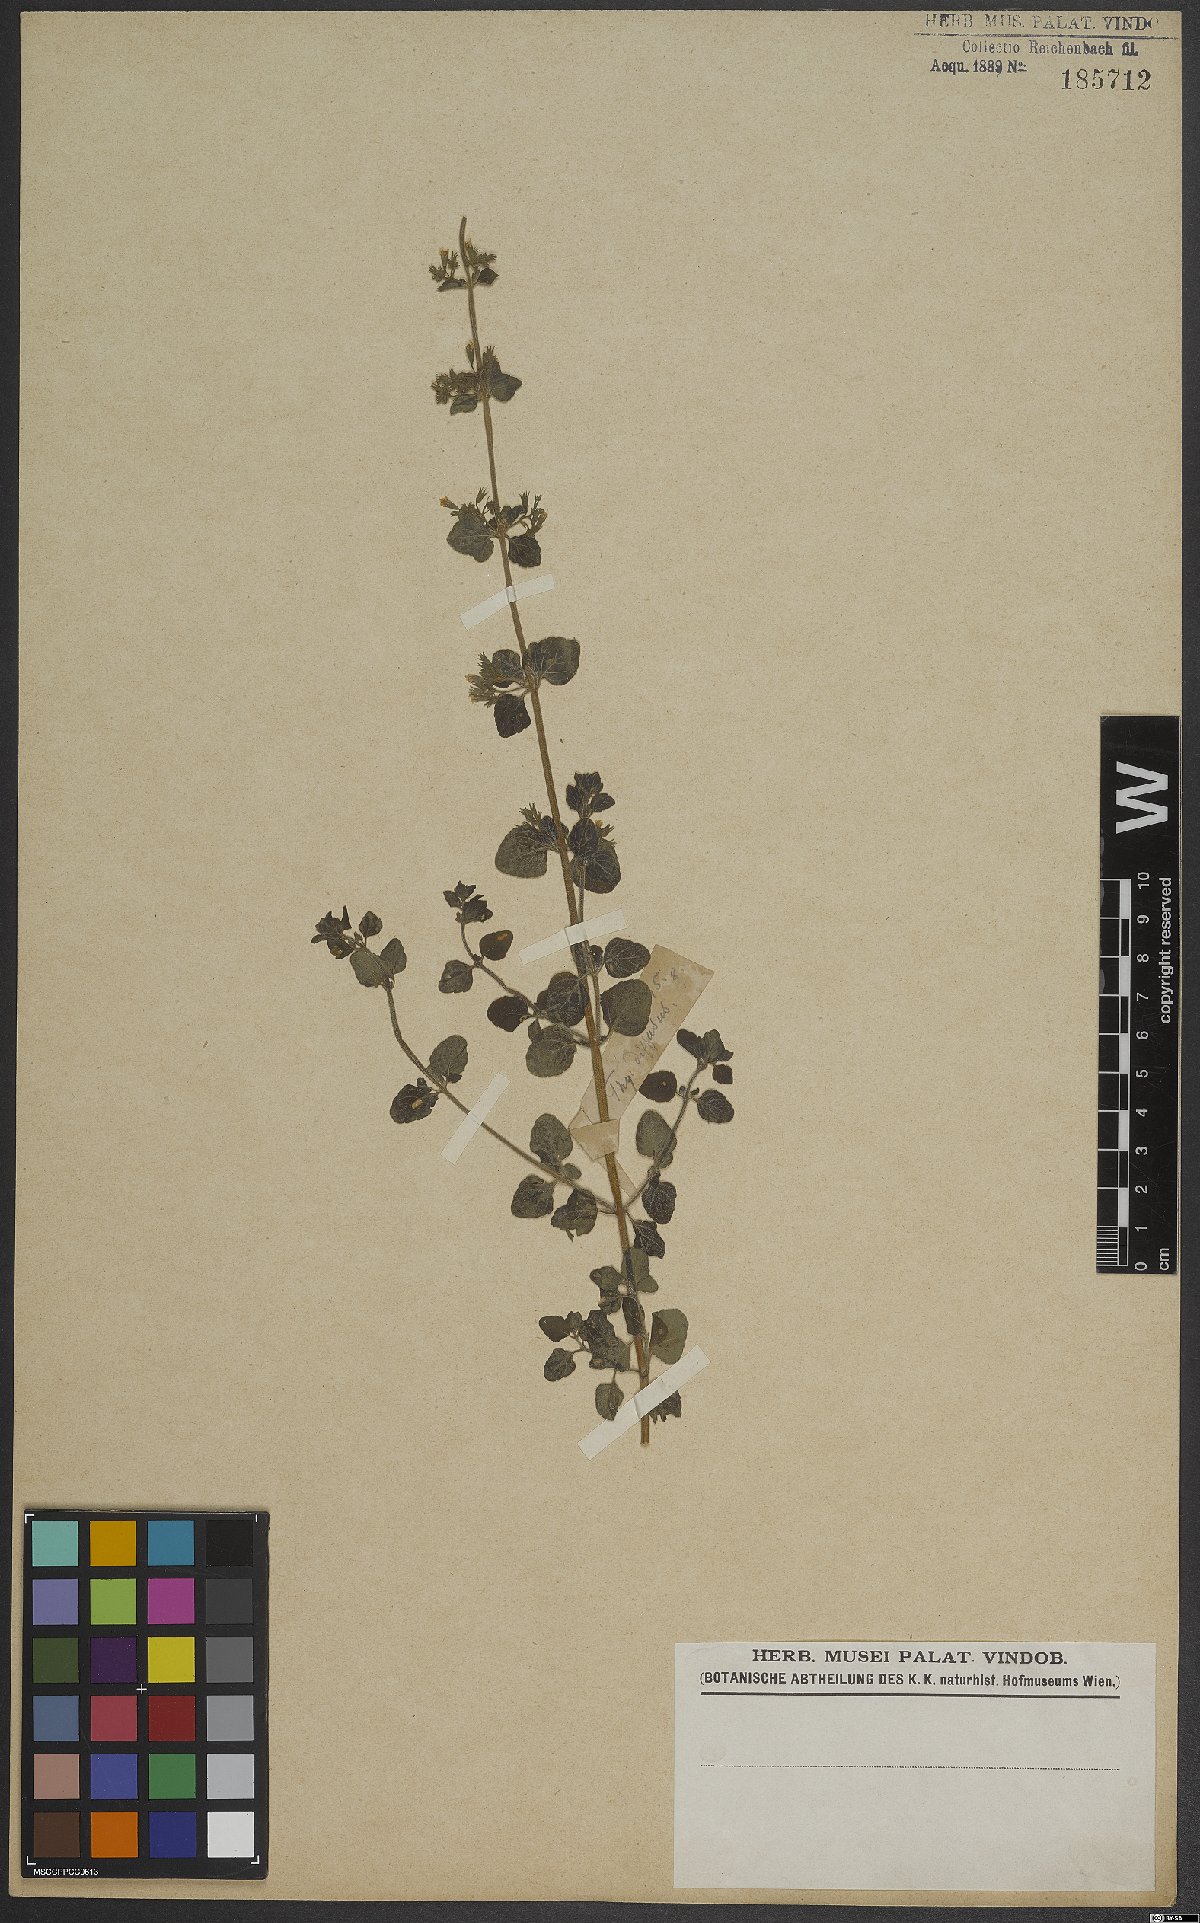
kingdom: Plantae
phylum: Tracheophyta
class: Magnoliopsida
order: Lamiales
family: Lamiaceae
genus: Calamintha
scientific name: Calamintha
